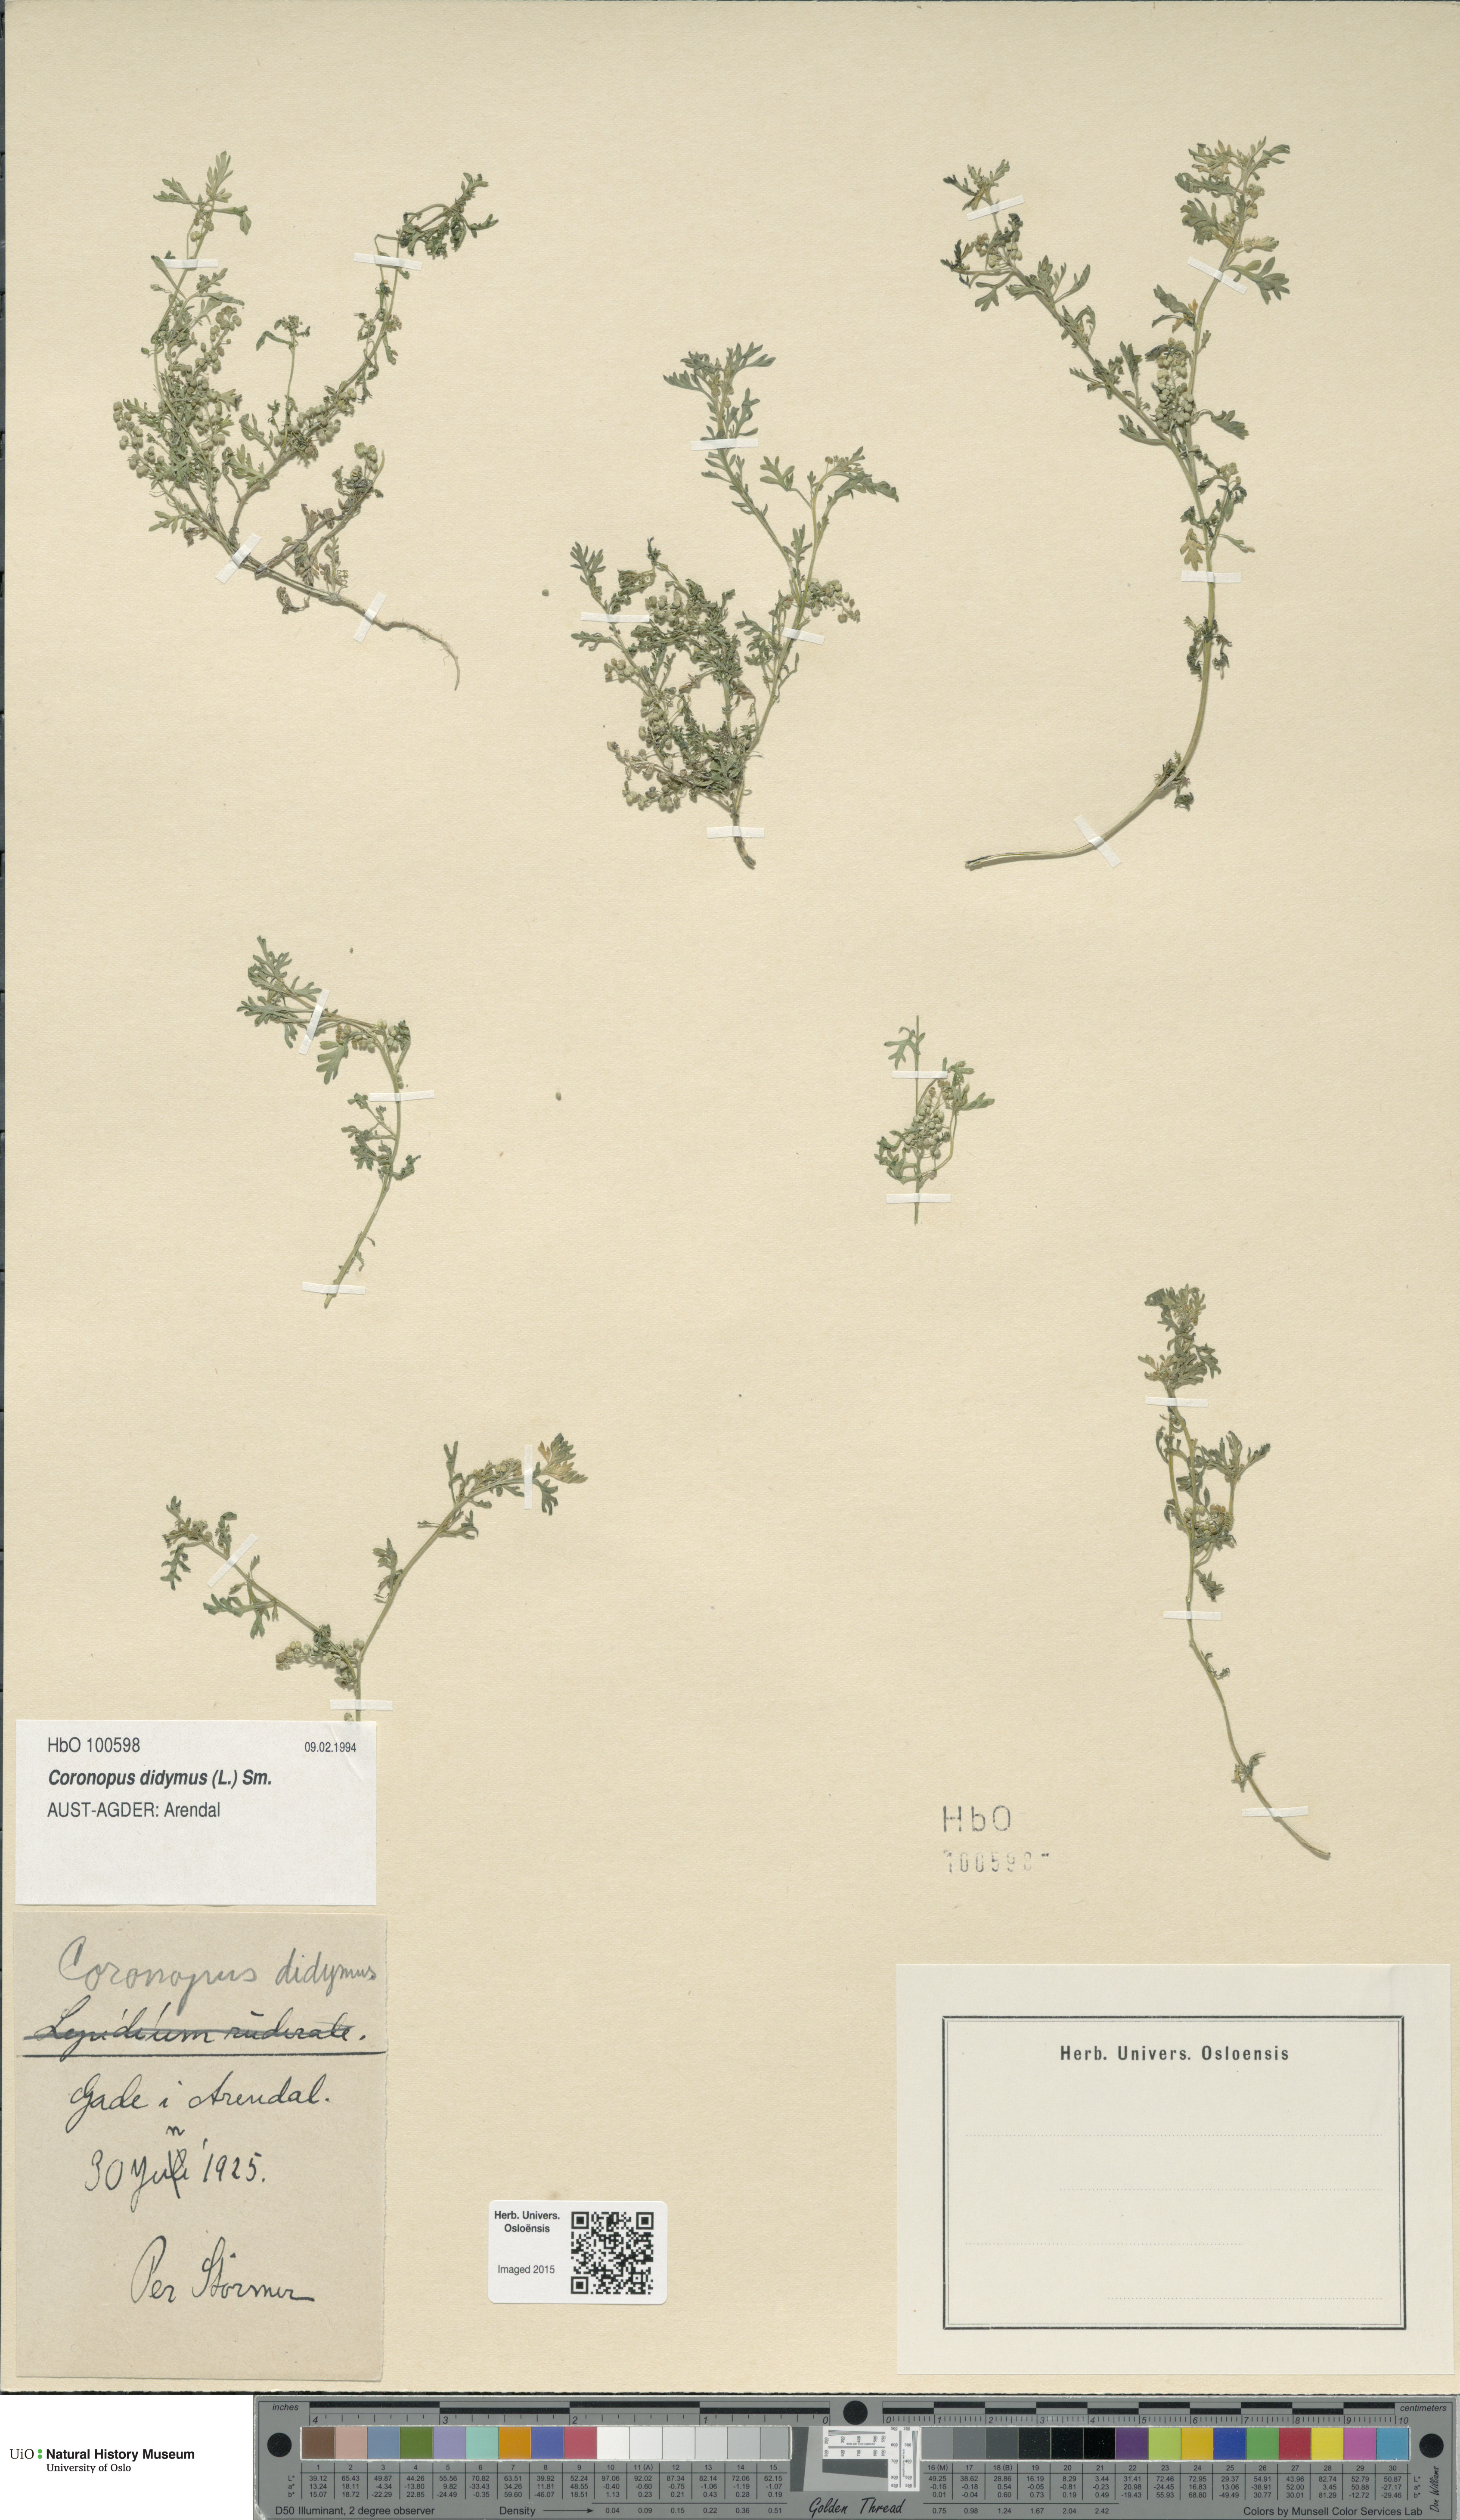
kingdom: Plantae
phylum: Tracheophyta
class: Magnoliopsida
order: Brassicales
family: Brassicaceae
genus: Lepidium
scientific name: Lepidium didymum
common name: Lesser swinecress
